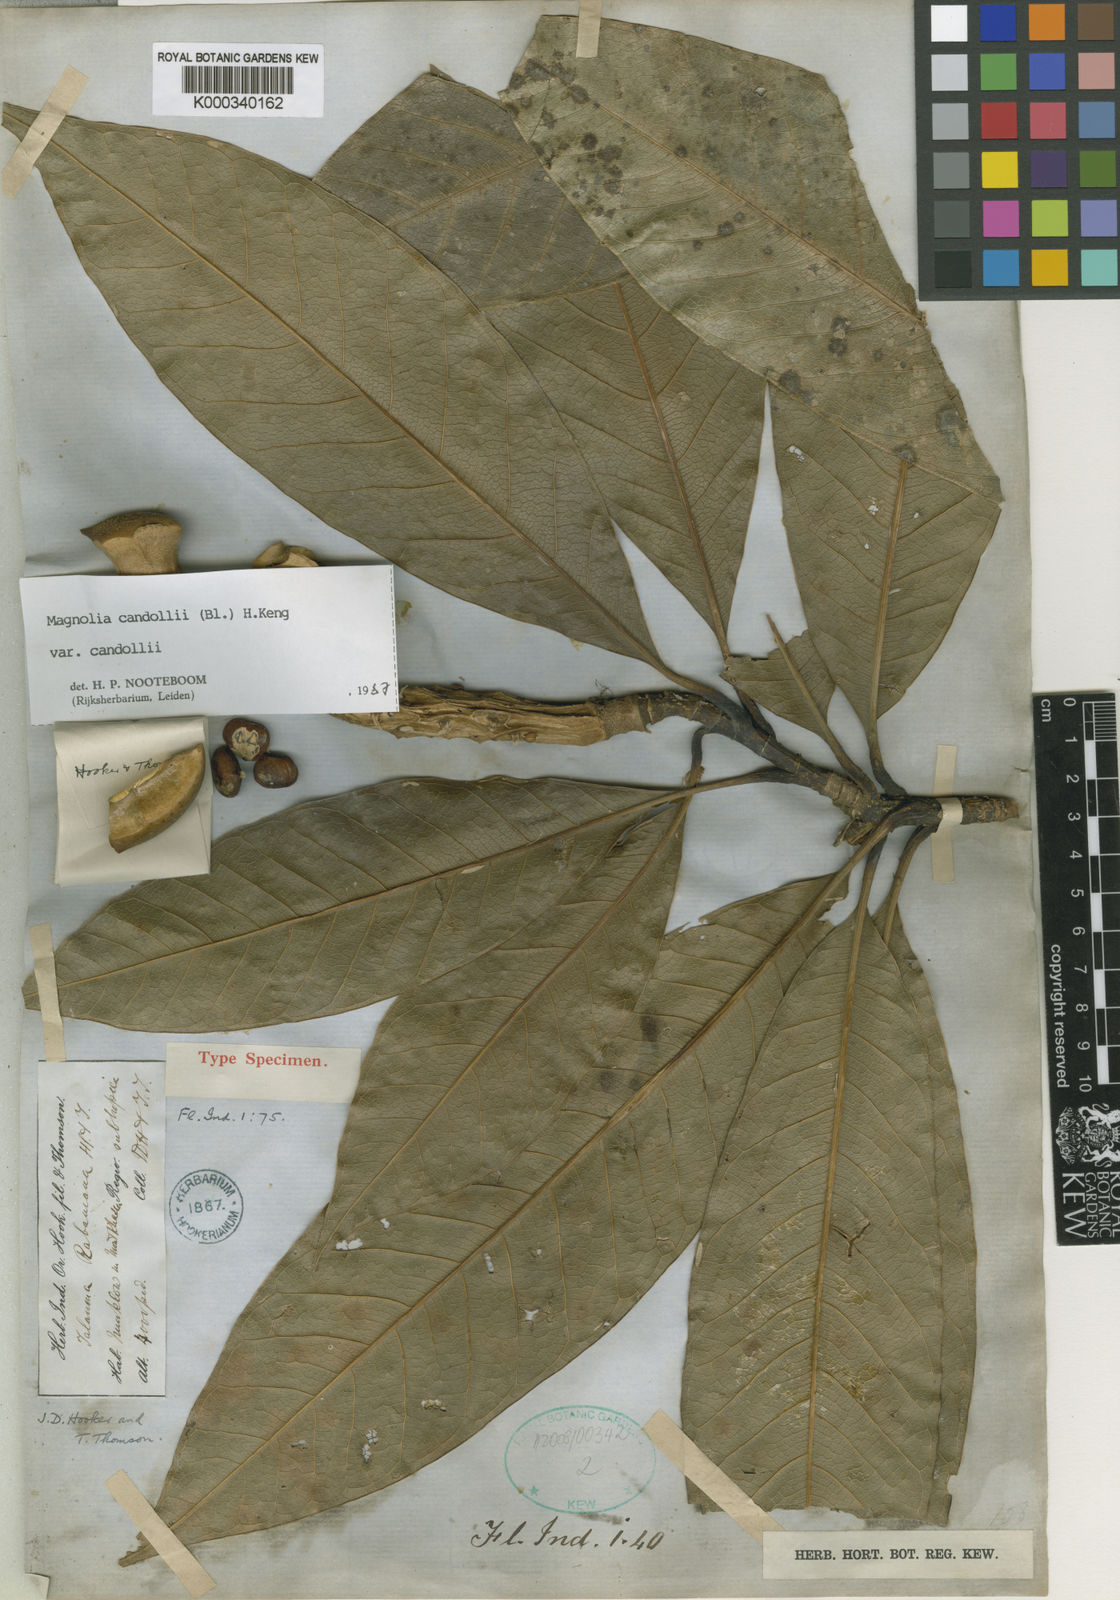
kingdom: Plantae
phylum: Tracheophyta
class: Magnoliopsida
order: Magnoliales
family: Magnoliaceae
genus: Magnolia
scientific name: Magnolia liliifera
